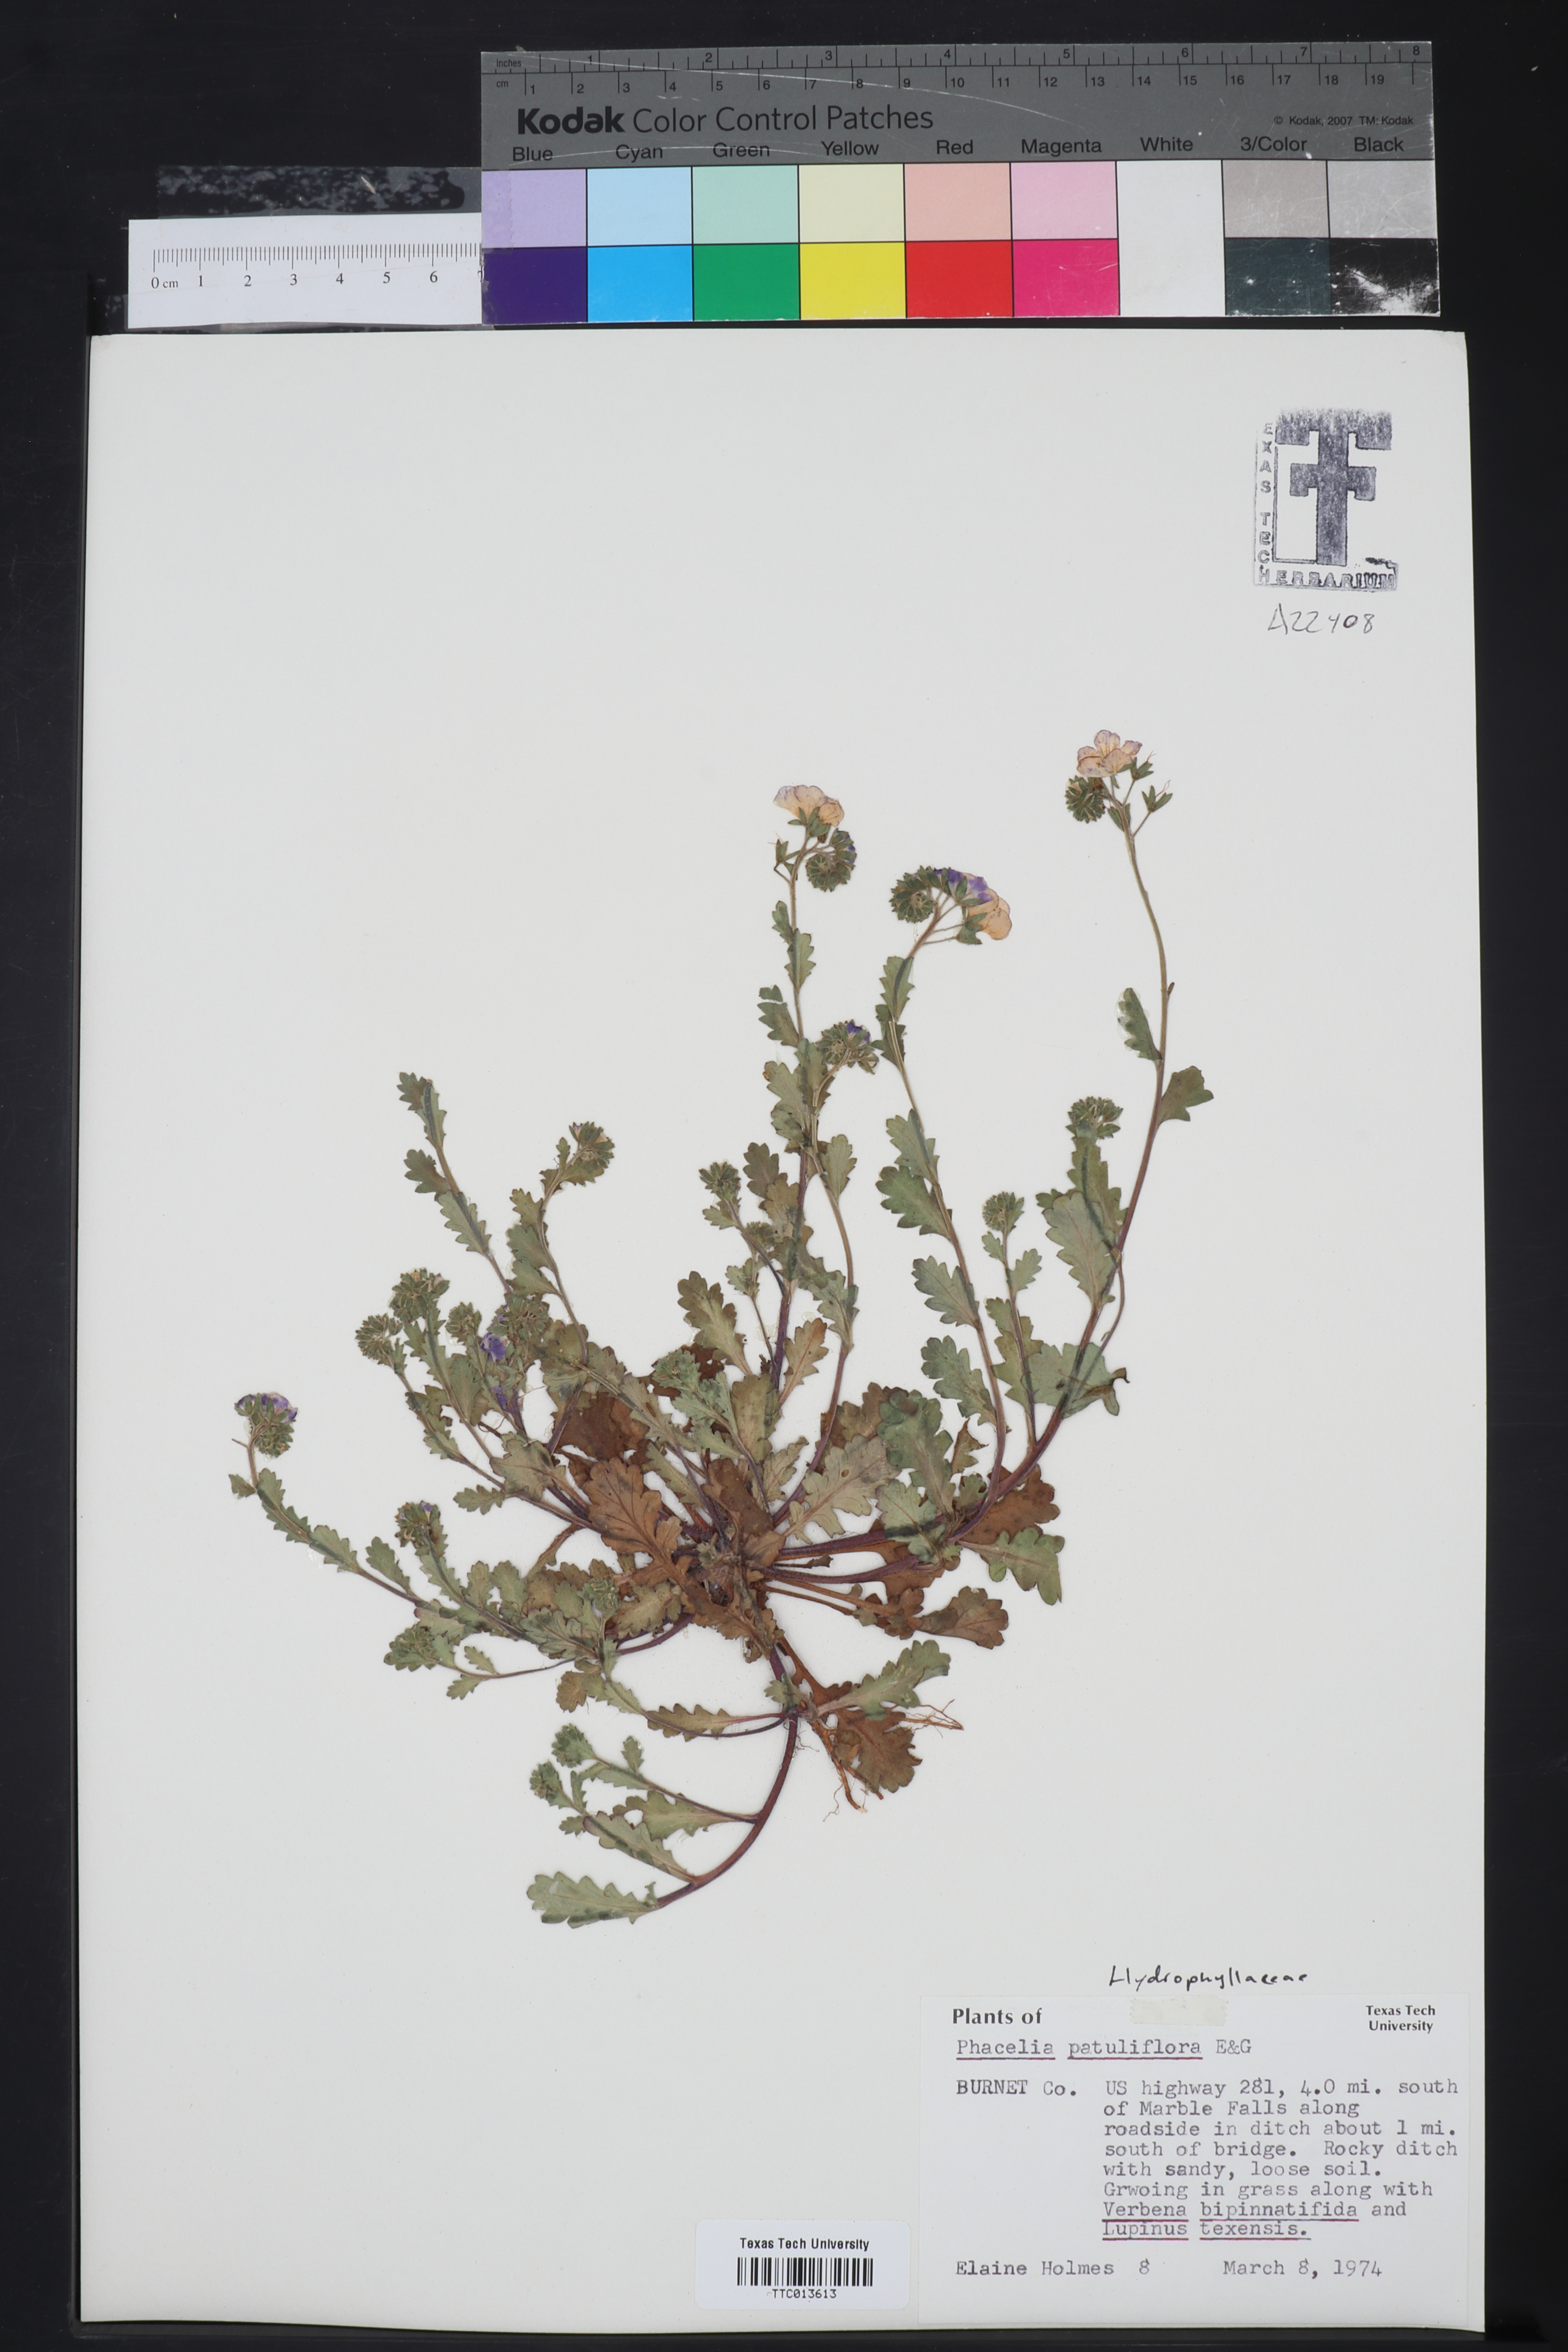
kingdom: Plantae
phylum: Tracheophyta
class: Magnoliopsida
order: Boraginales
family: Hydrophyllaceae
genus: Phacelia
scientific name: Phacelia patuliflora
